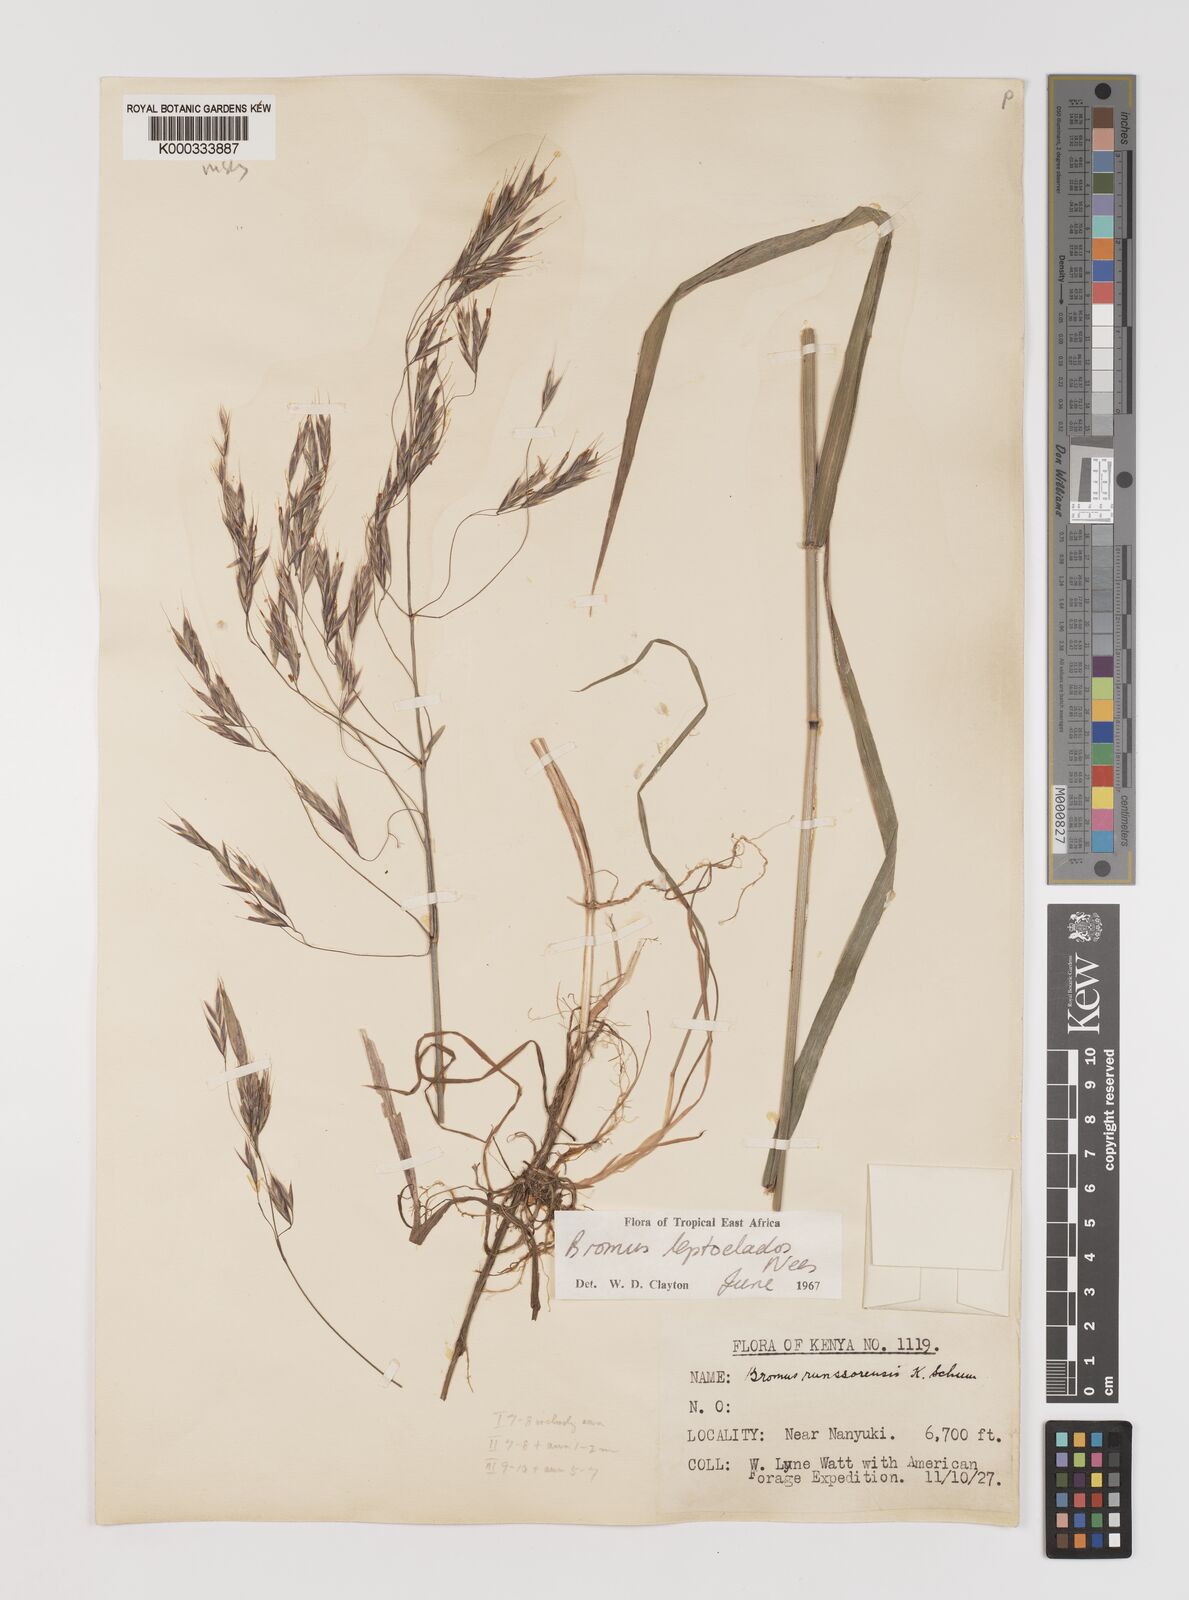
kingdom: Plantae
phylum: Tracheophyta
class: Liliopsida
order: Poales
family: Poaceae
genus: Bromus
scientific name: Bromus leptoclados
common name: Mountain bromegrass
